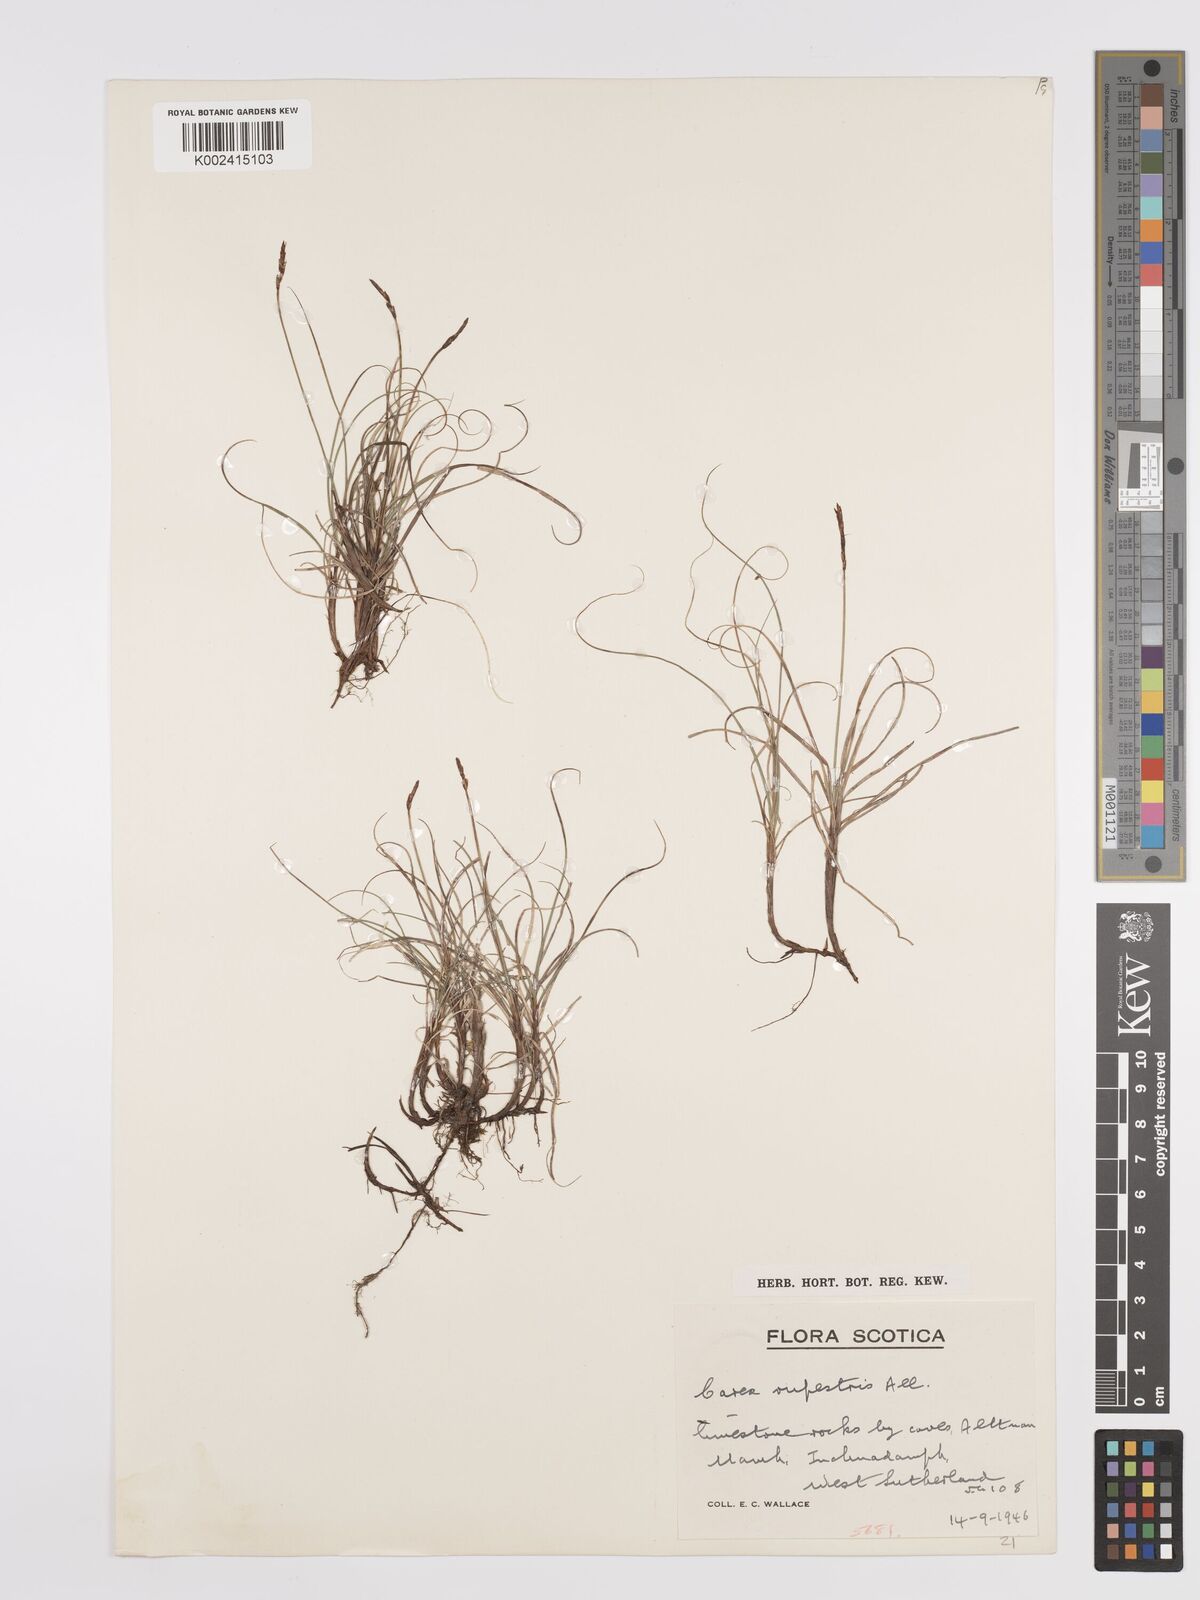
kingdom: Plantae
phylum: Tracheophyta
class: Liliopsida
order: Poales
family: Cyperaceae
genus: Carex
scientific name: Carex rupestris
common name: Rock sedge
